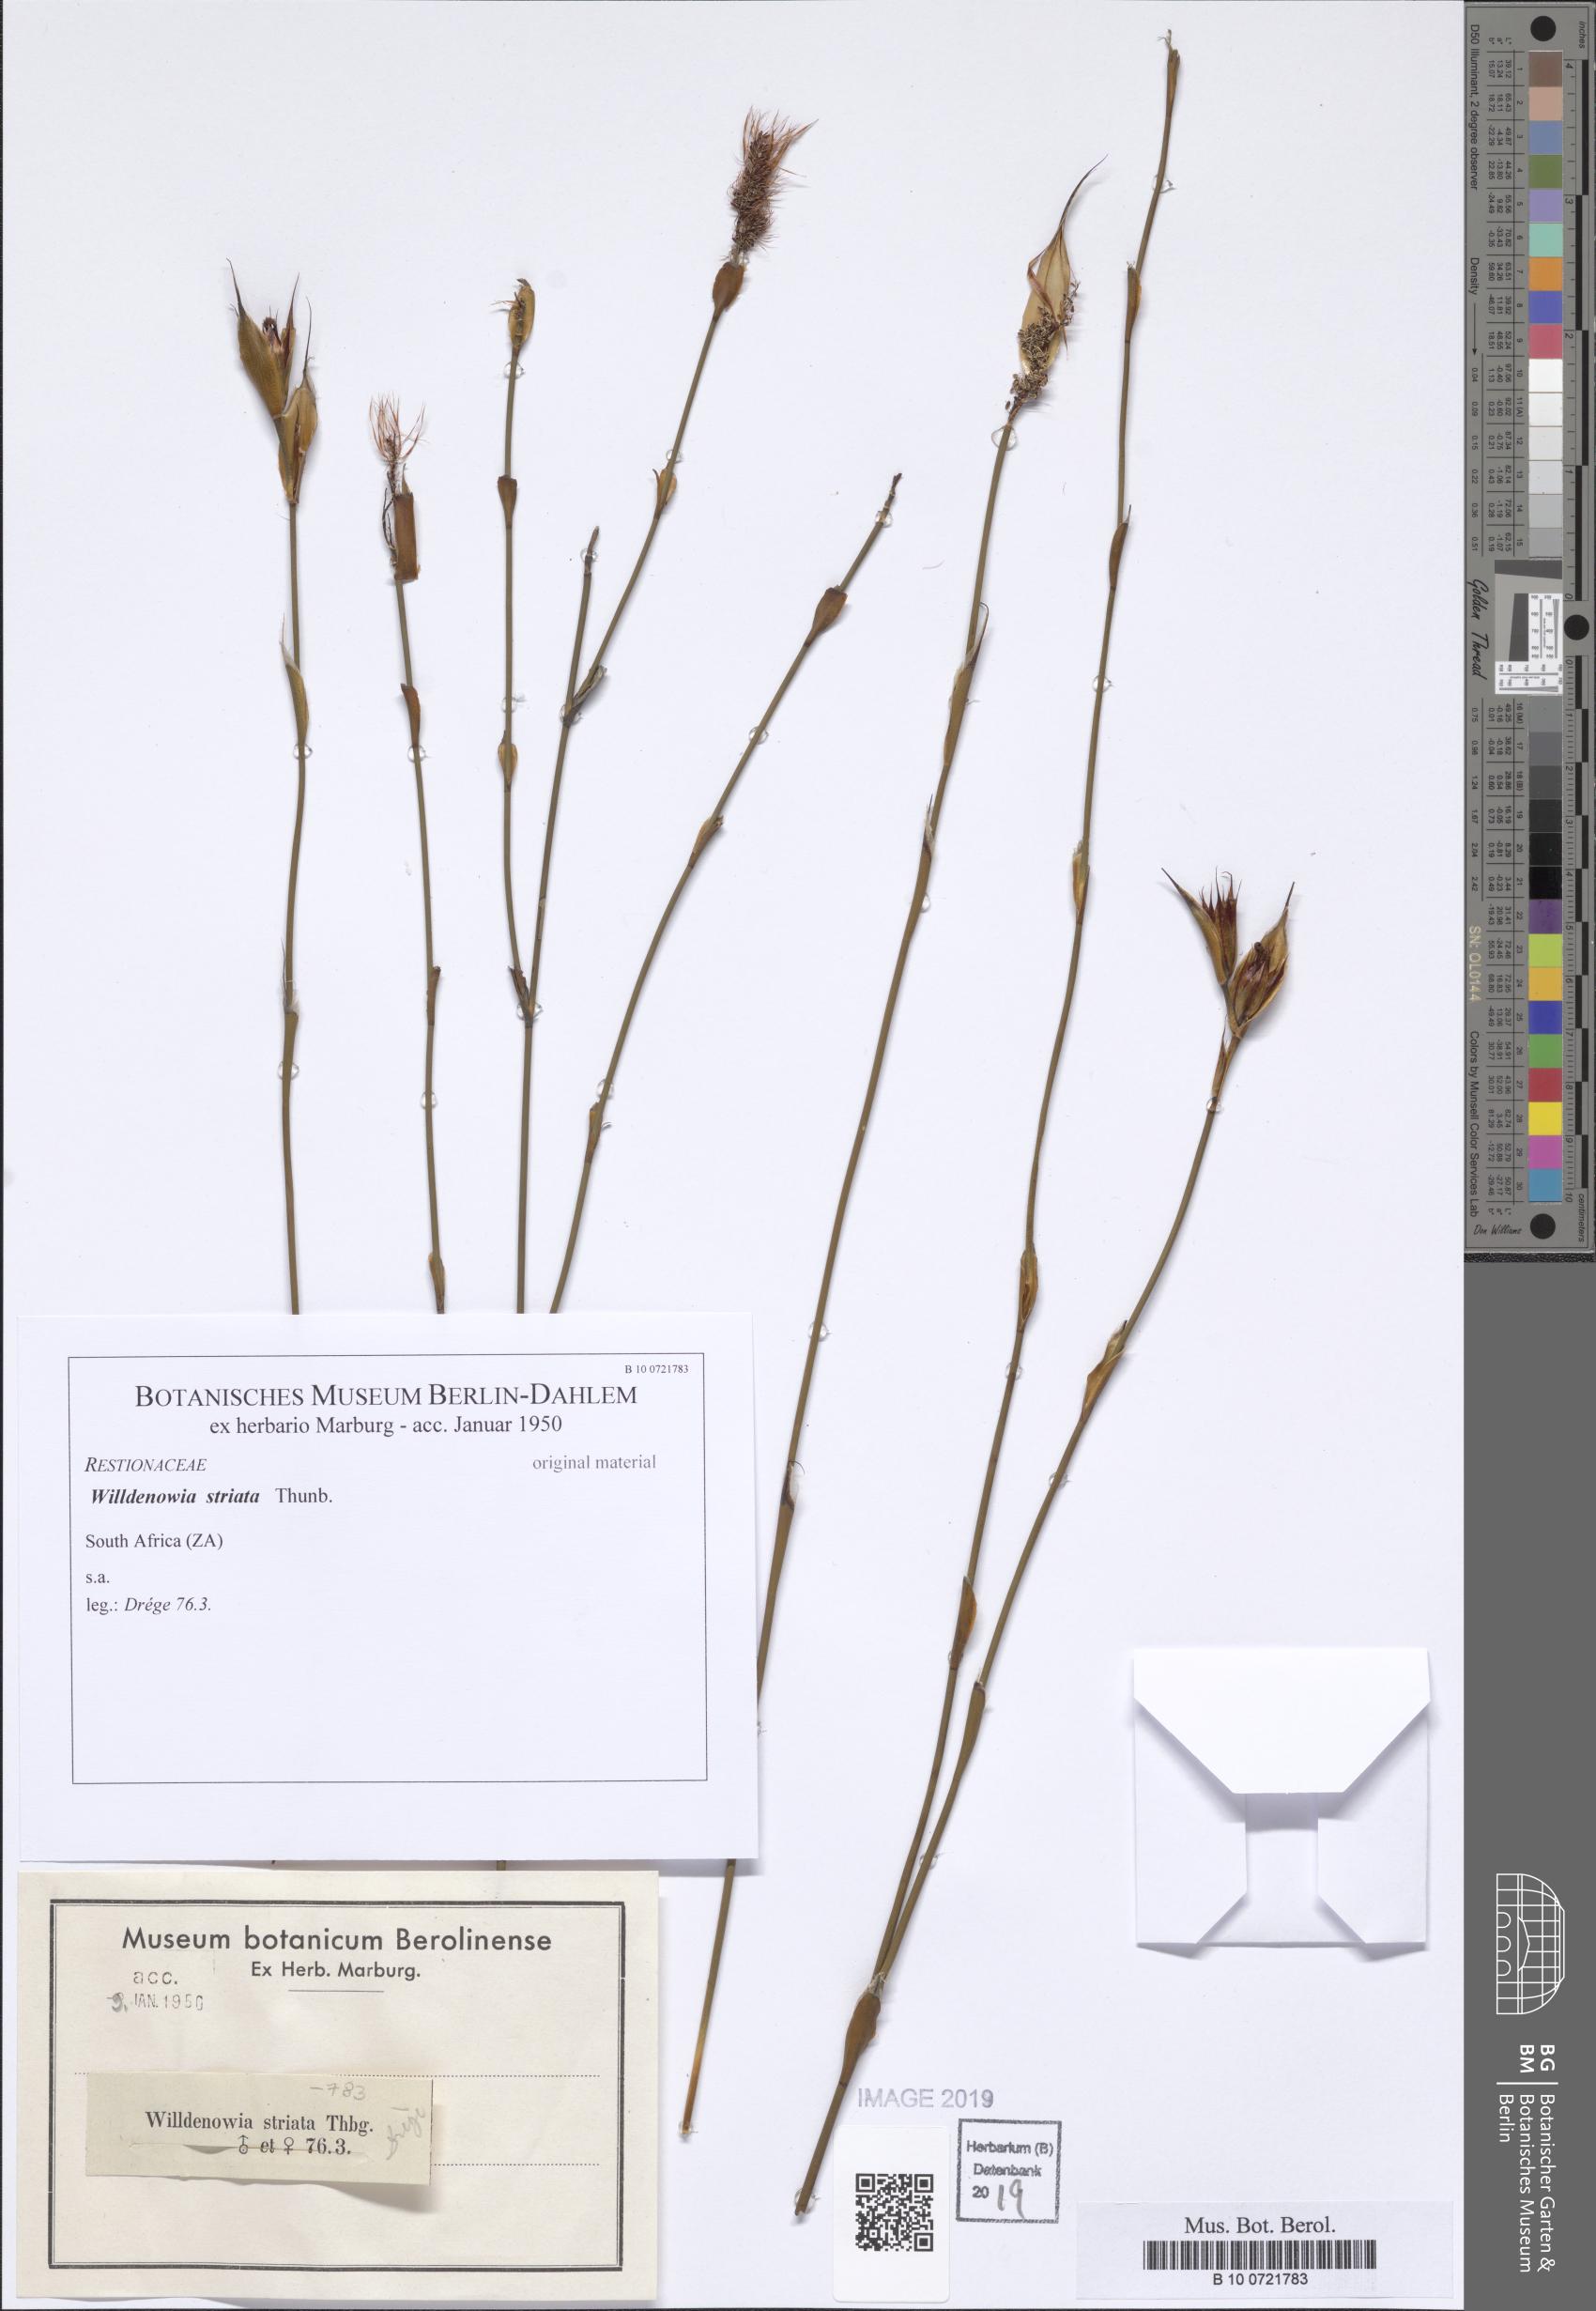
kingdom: Plantae
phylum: Tracheophyta
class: Liliopsida
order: Poales
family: Restionaceae
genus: Willdenowia
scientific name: Willdenowia incurvata
